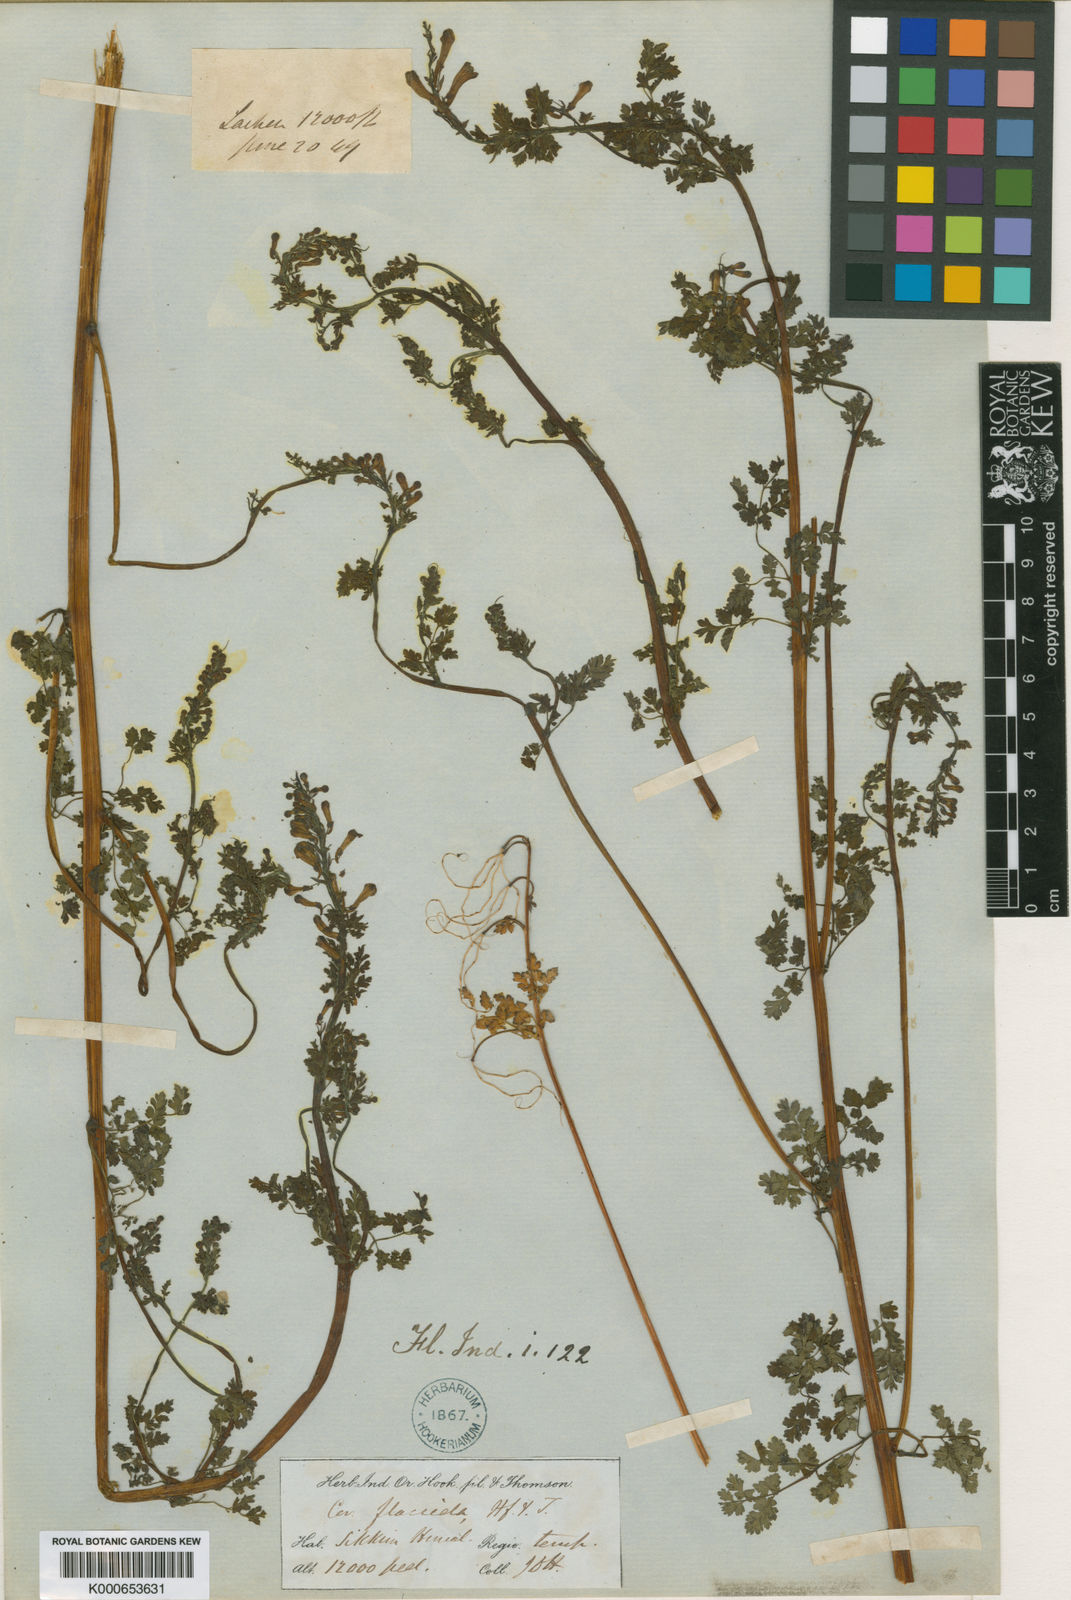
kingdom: Plantae
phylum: Tracheophyta
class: Magnoliopsida
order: Ranunculales
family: Papaveraceae
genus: Corydalis
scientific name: Corydalis ophiocarpa
